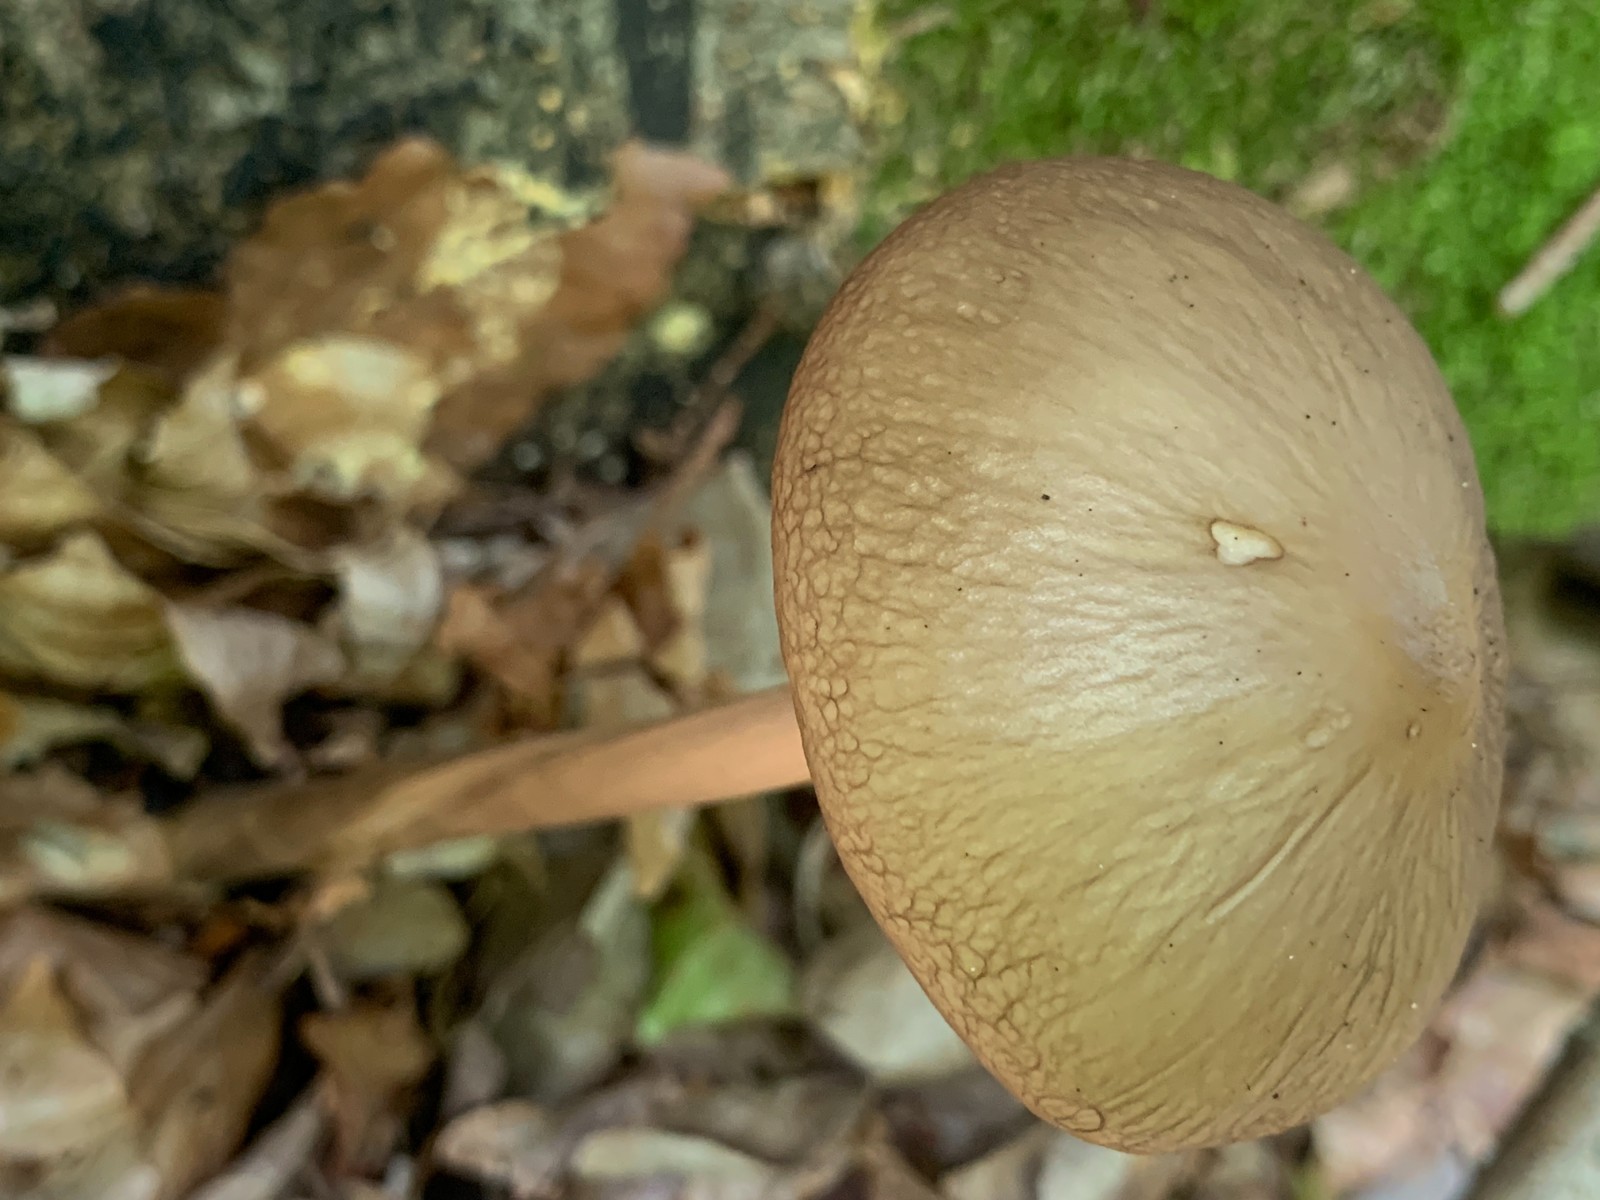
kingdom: Fungi
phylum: Basidiomycota
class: Agaricomycetes
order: Agaricales
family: Physalacriaceae
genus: Hymenopellis
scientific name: Hymenopellis radicata
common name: almindelig pælerodshat
